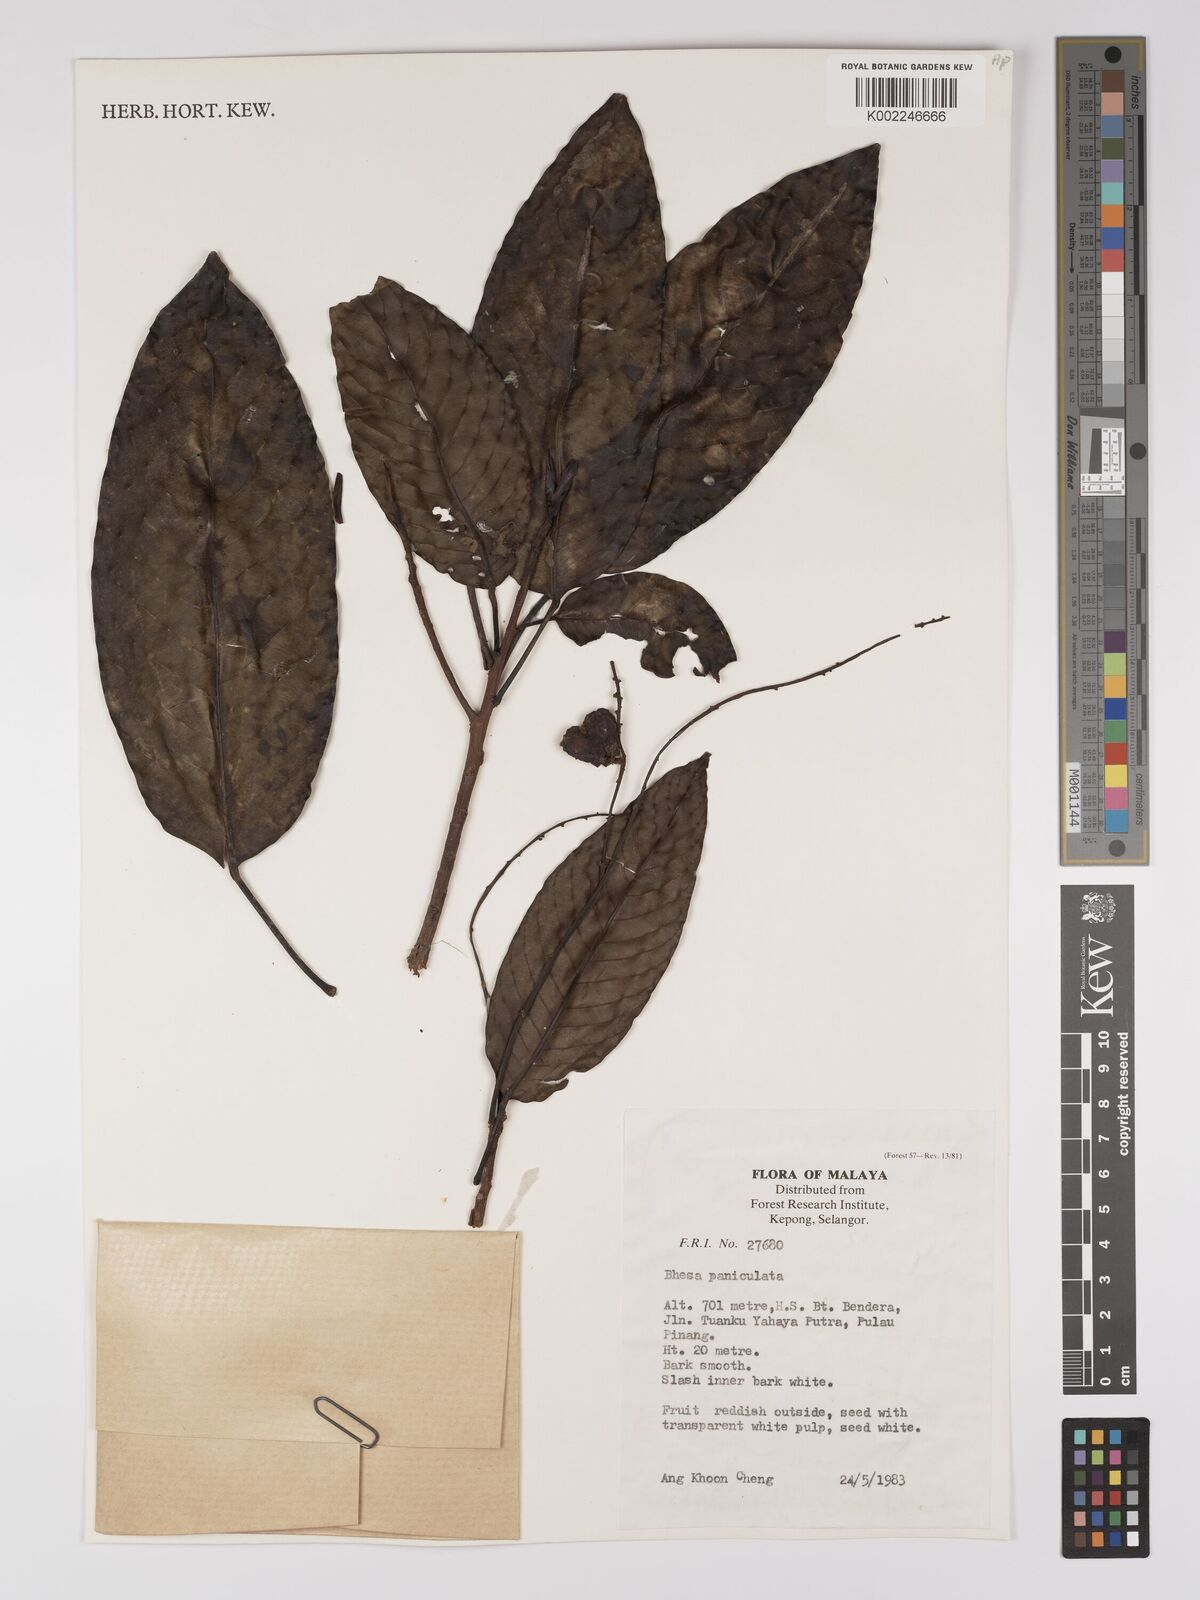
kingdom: Plantae
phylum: Tracheophyta
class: Magnoliopsida
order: Malpighiales
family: Centroplacaceae
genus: Bhesa
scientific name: Bhesa paniculata
